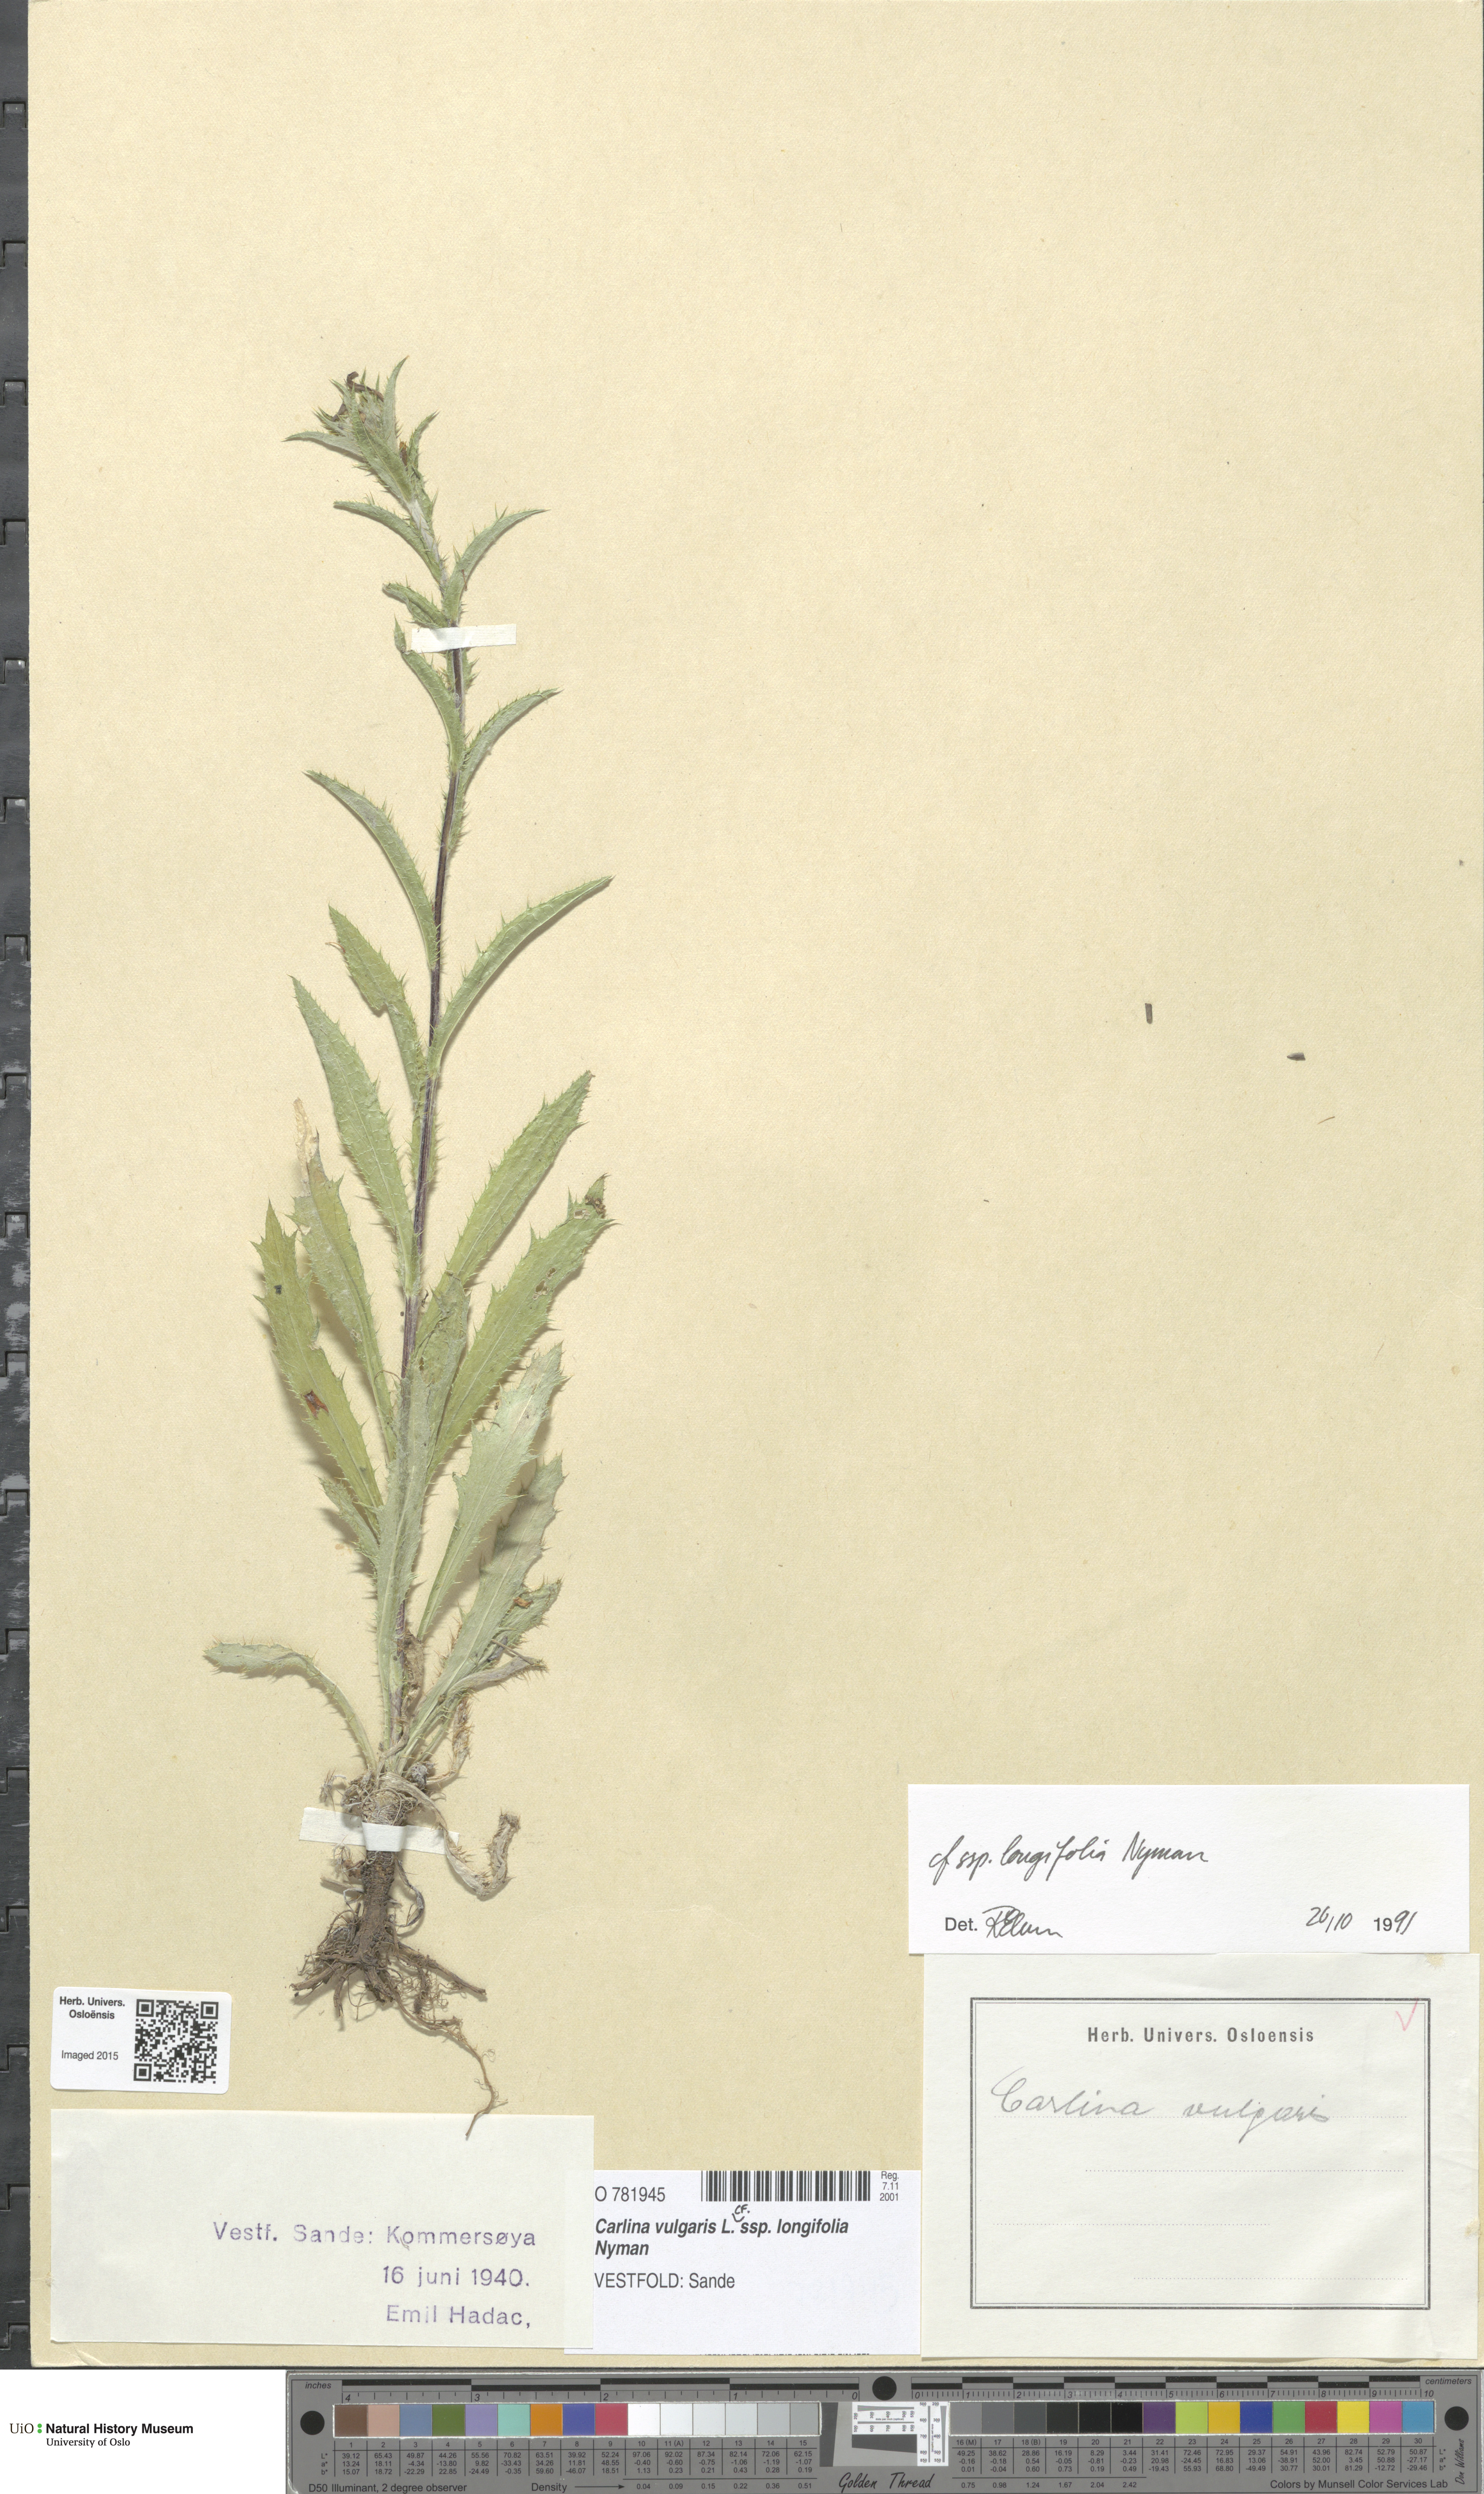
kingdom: Plantae
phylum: Tracheophyta
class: Magnoliopsida
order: Asterales
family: Asteraceae
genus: Carlina
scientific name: Carlina biebersteinii
